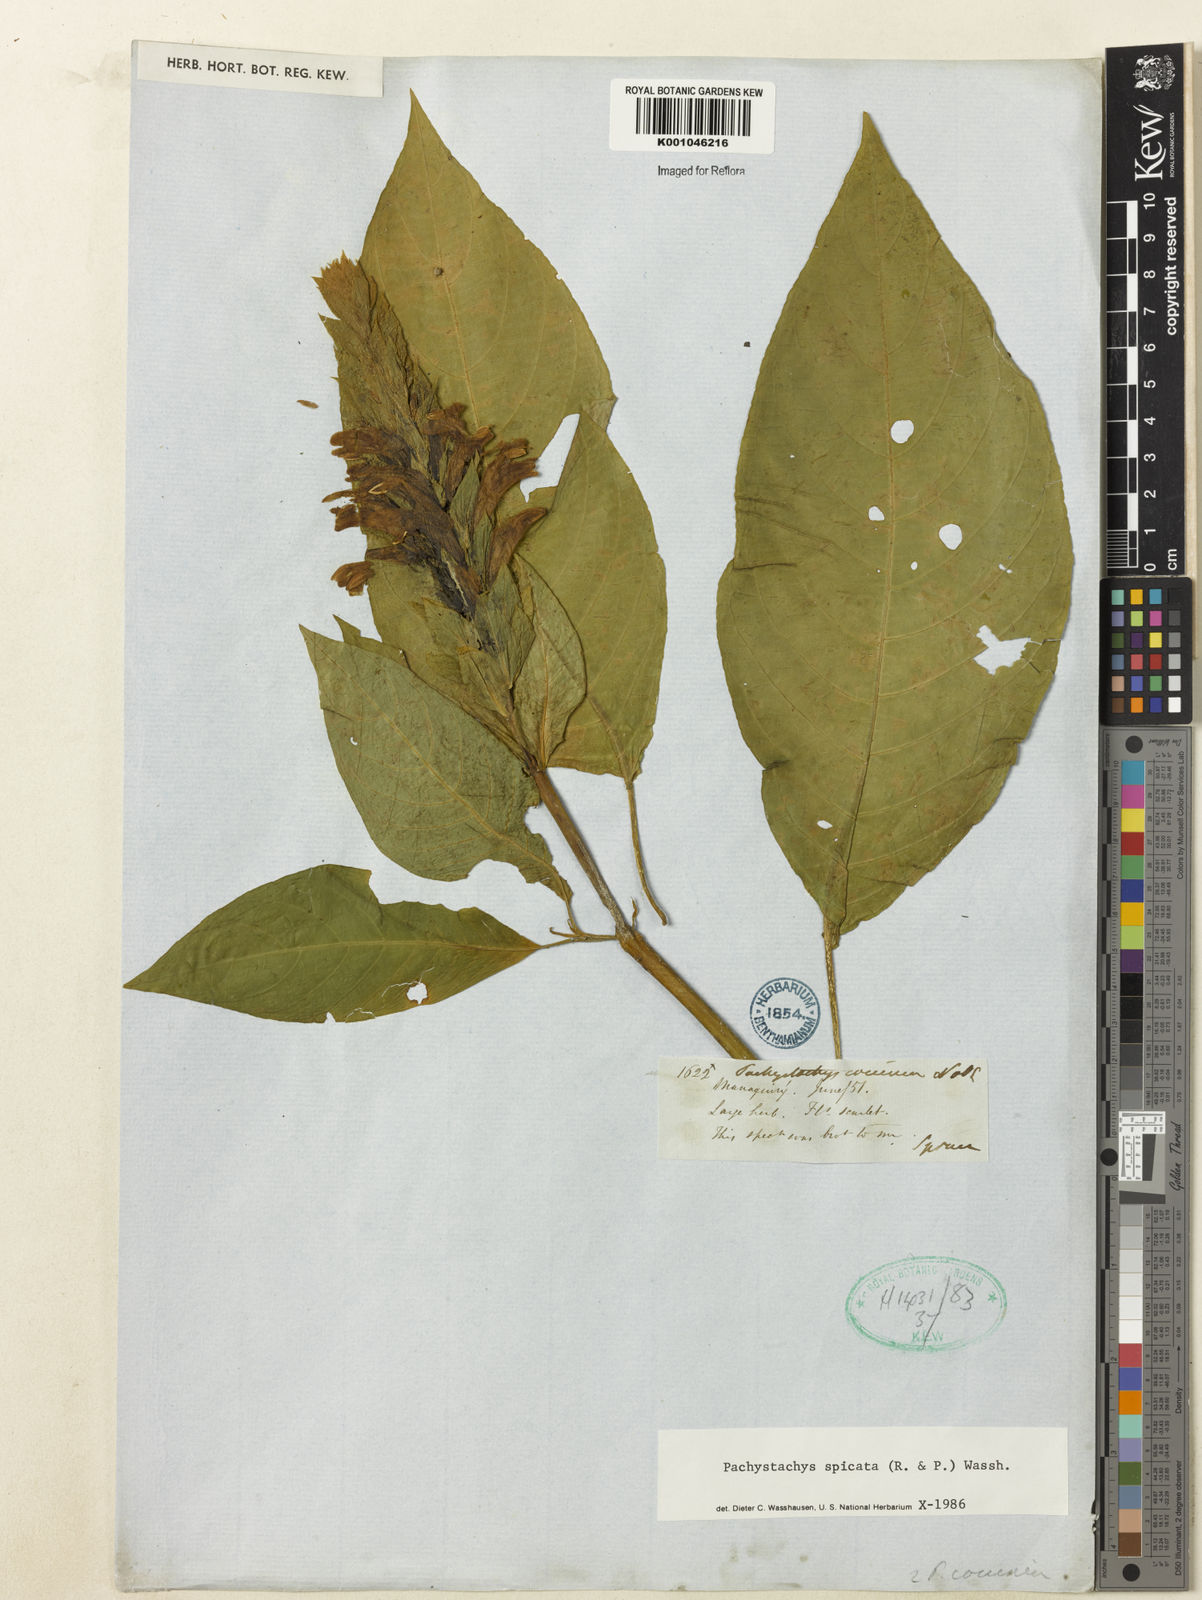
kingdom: Plantae
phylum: Tracheophyta
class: Magnoliopsida
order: Lamiales
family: Acanthaceae
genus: Pachystachys
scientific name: Pachystachys spicata
